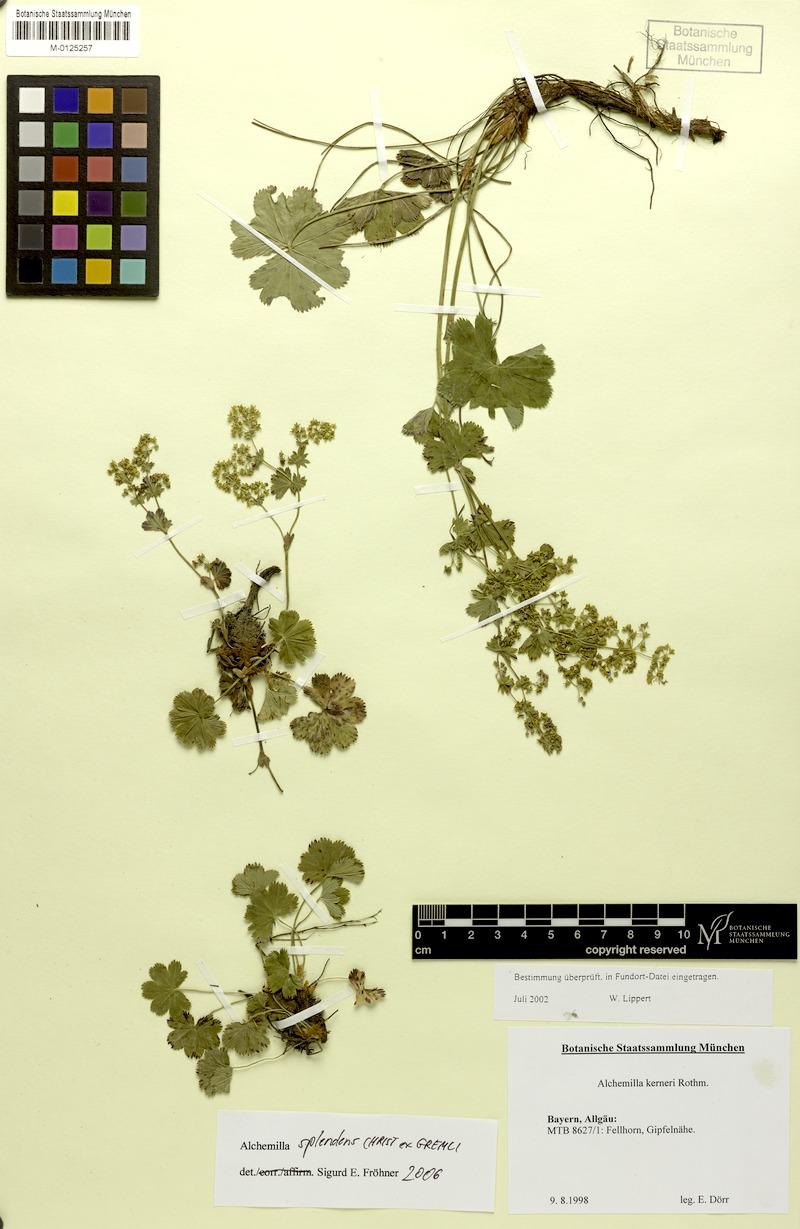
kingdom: Plantae
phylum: Tracheophyta
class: Magnoliopsida
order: Rosales
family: Rosaceae
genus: Alchemilla
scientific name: Alchemilla splendens
